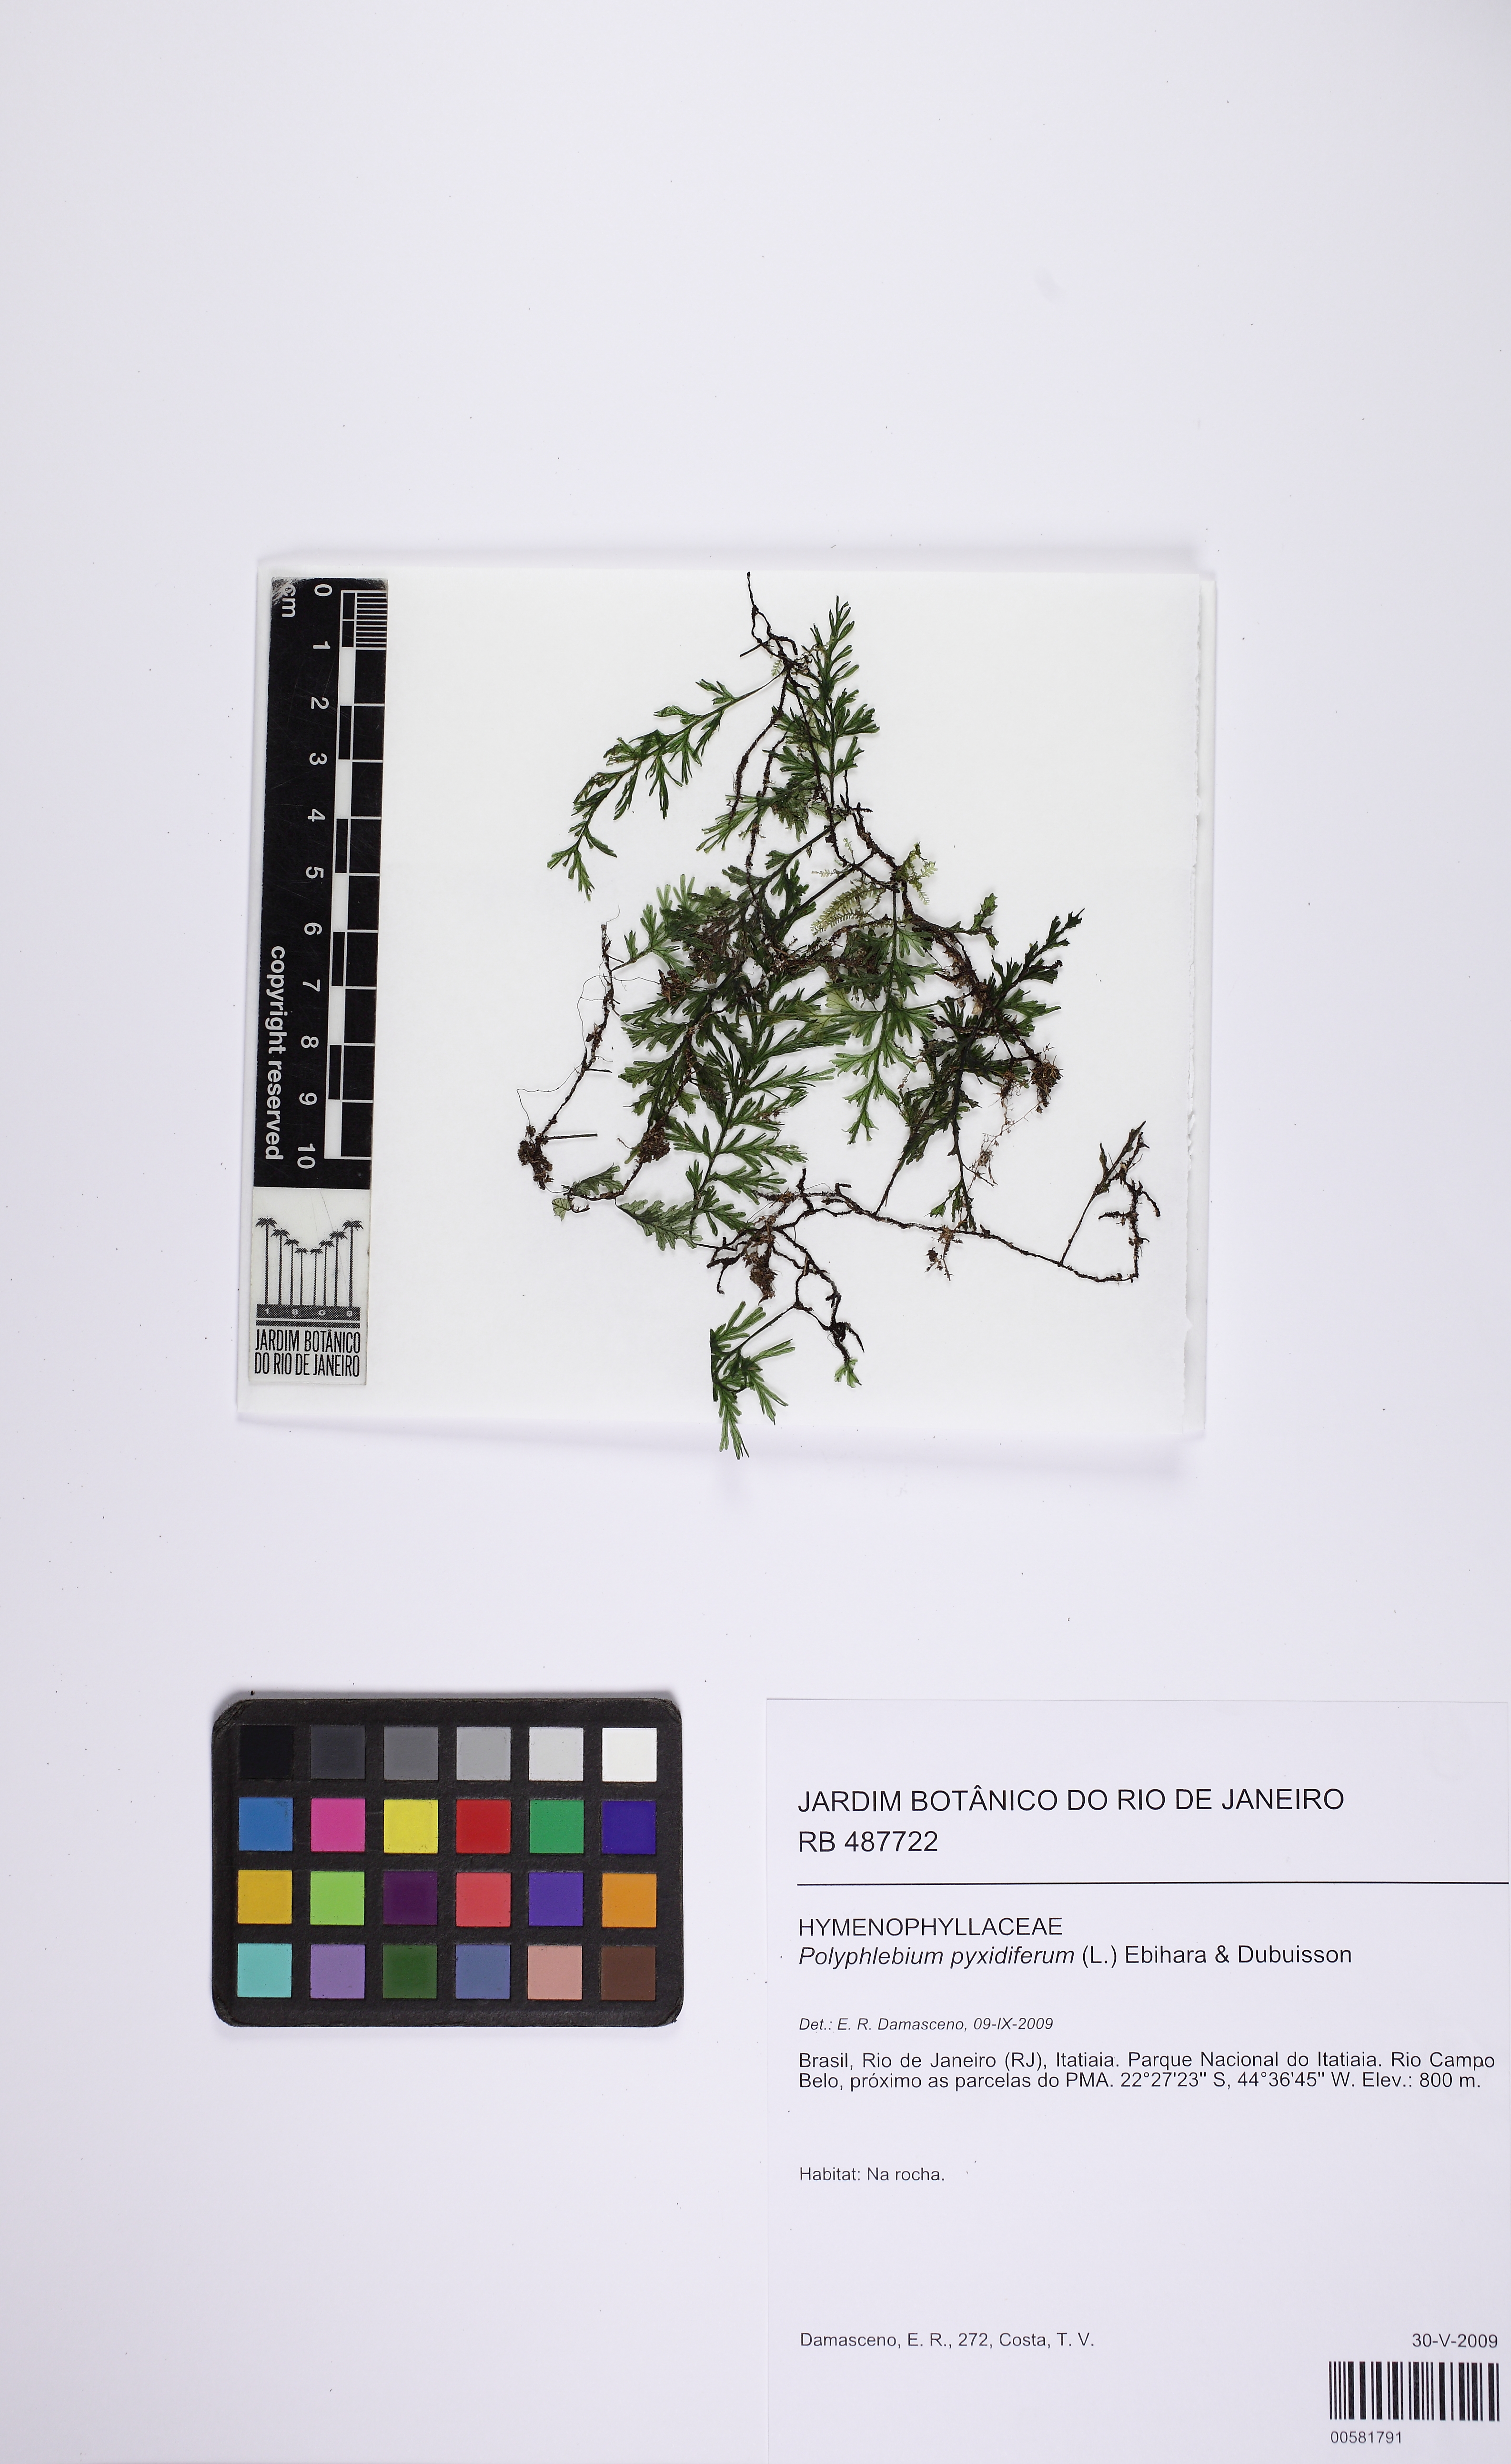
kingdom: Plantae
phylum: Tracheophyta
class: Polypodiopsida
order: Hymenophyllales
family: Hymenophyllaceae
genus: Polyphlebium
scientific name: Polyphlebium pyxidiferum
